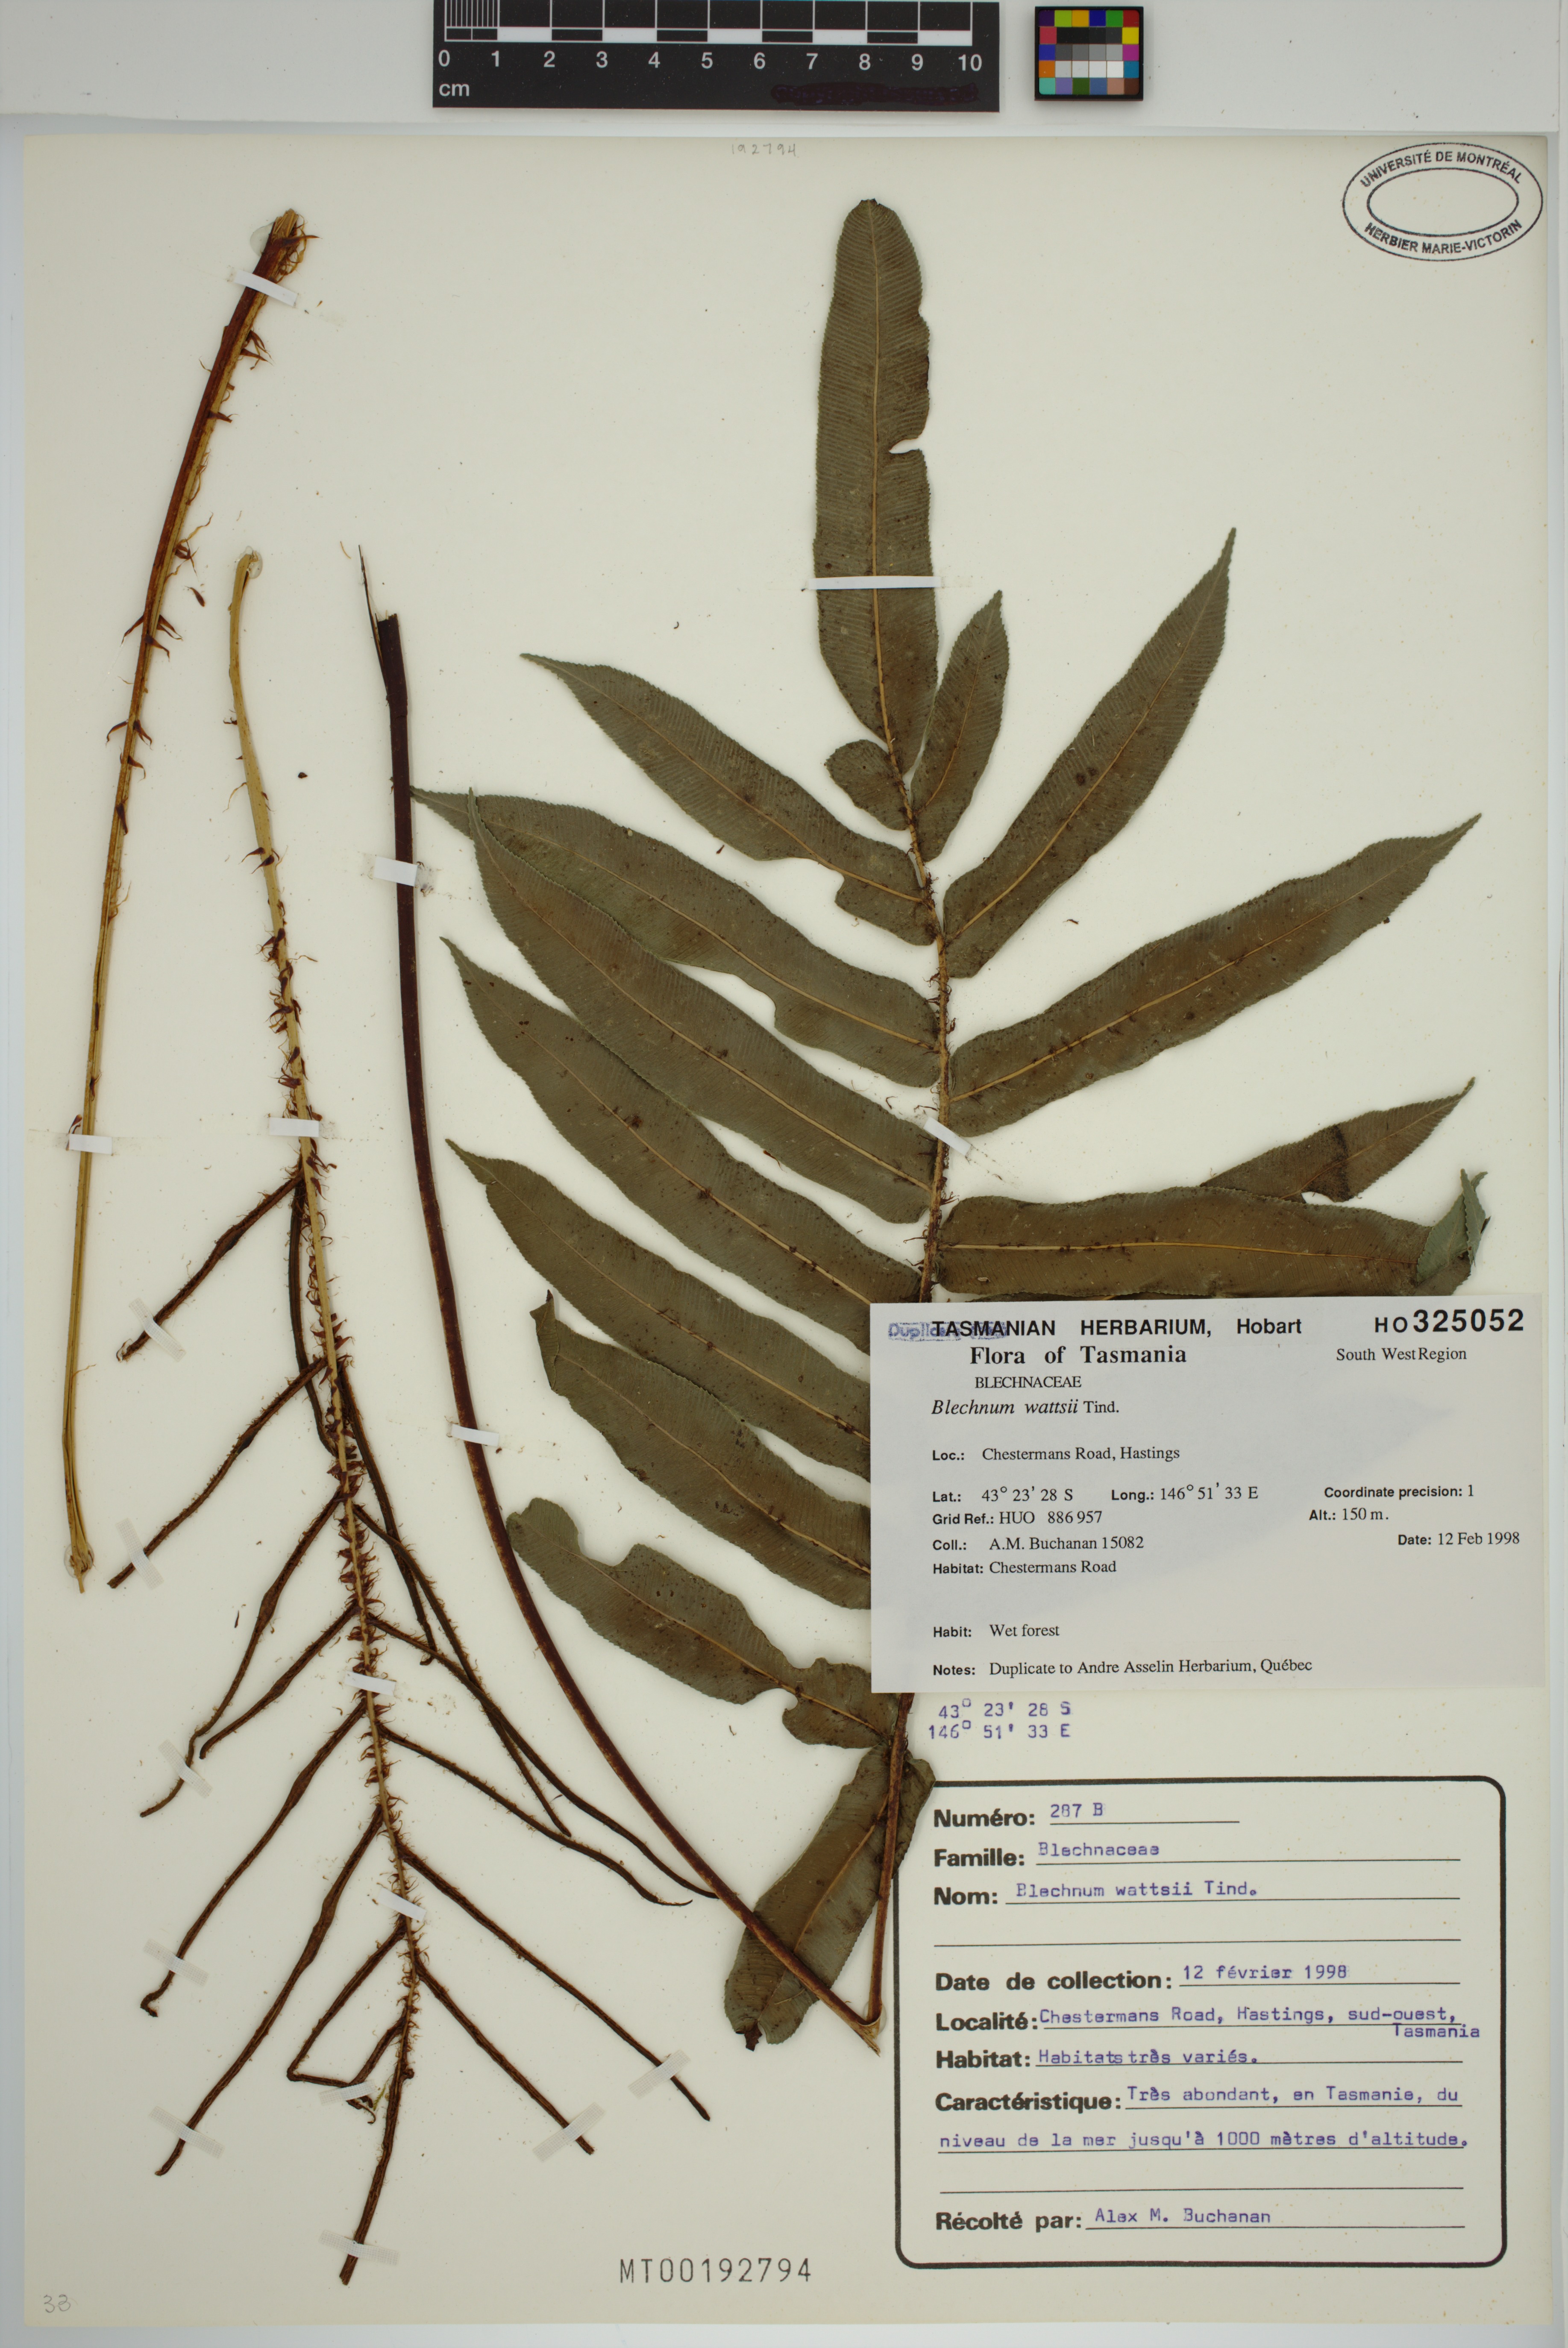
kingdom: Plantae
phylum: Tracheophyta
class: Polypodiopsida
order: Polypodiales
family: Blechnaceae
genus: Parablechnum
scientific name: Parablechnum wattsii
